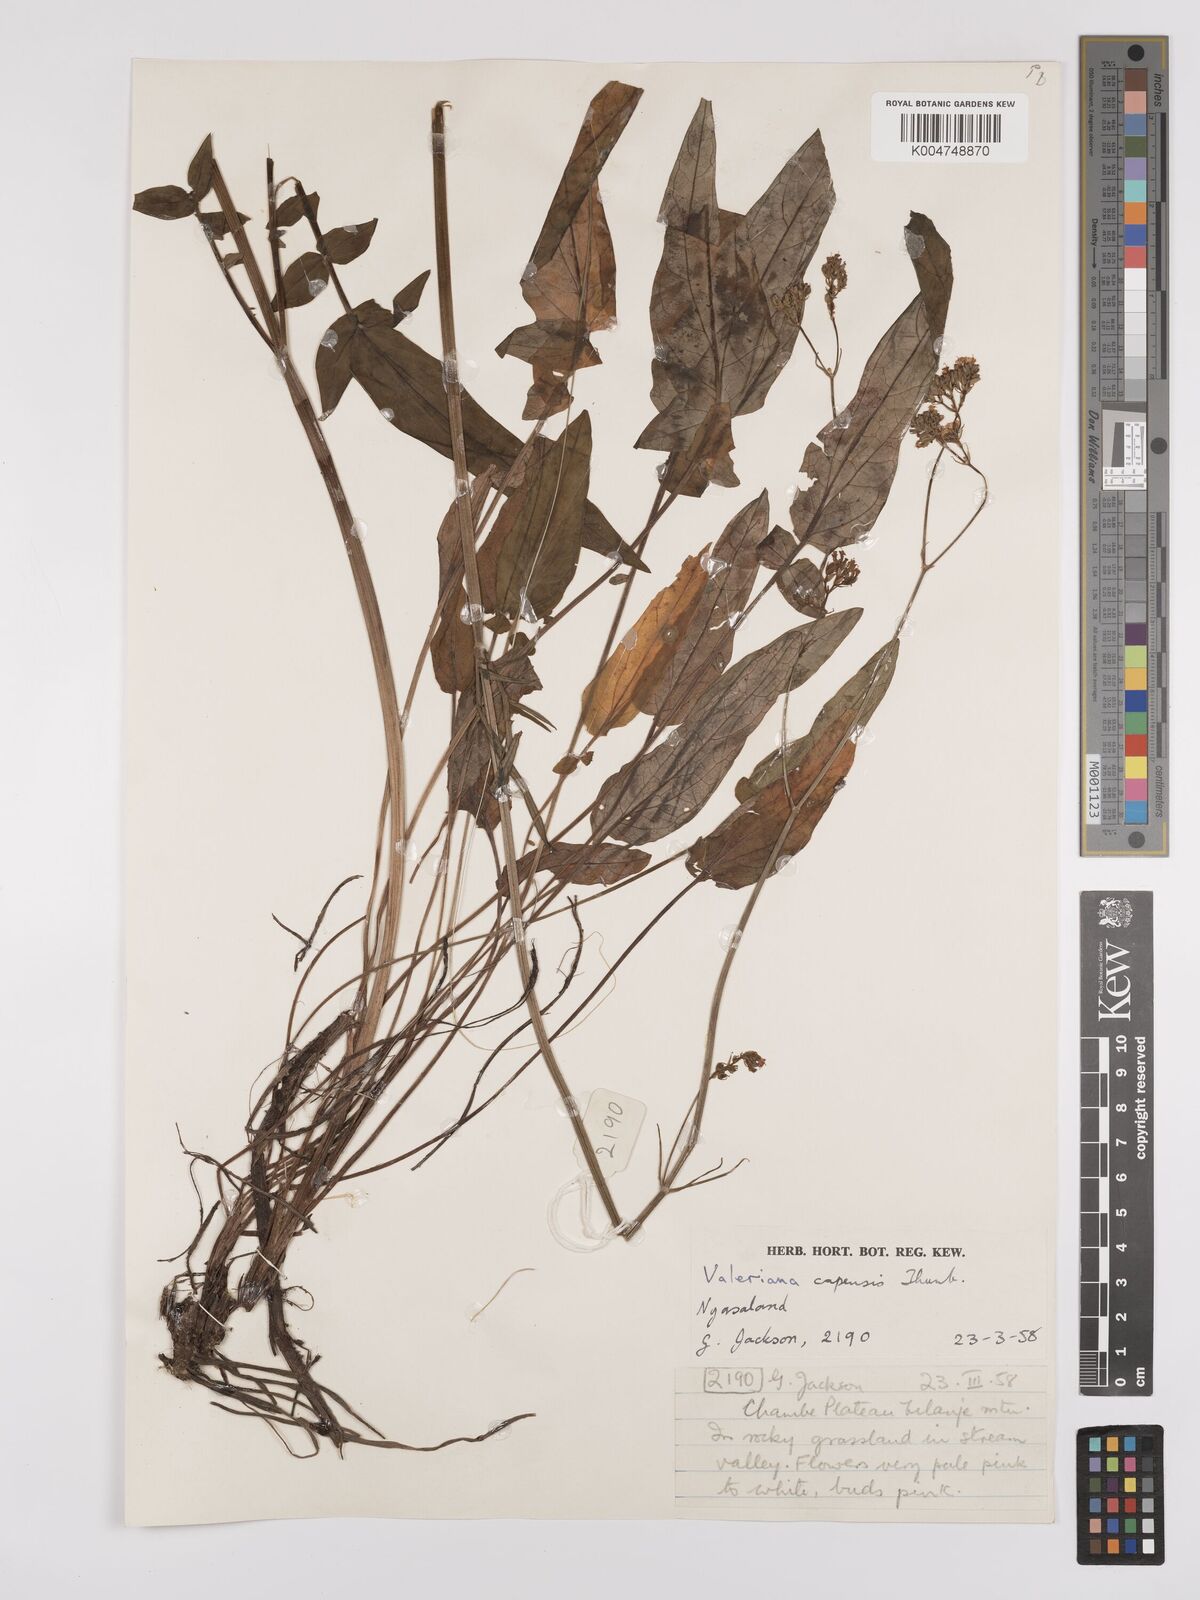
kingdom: Plantae
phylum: Tracheophyta
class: Magnoliopsida
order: Dipsacales
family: Caprifoliaceae
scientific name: Caprifoliaceae
